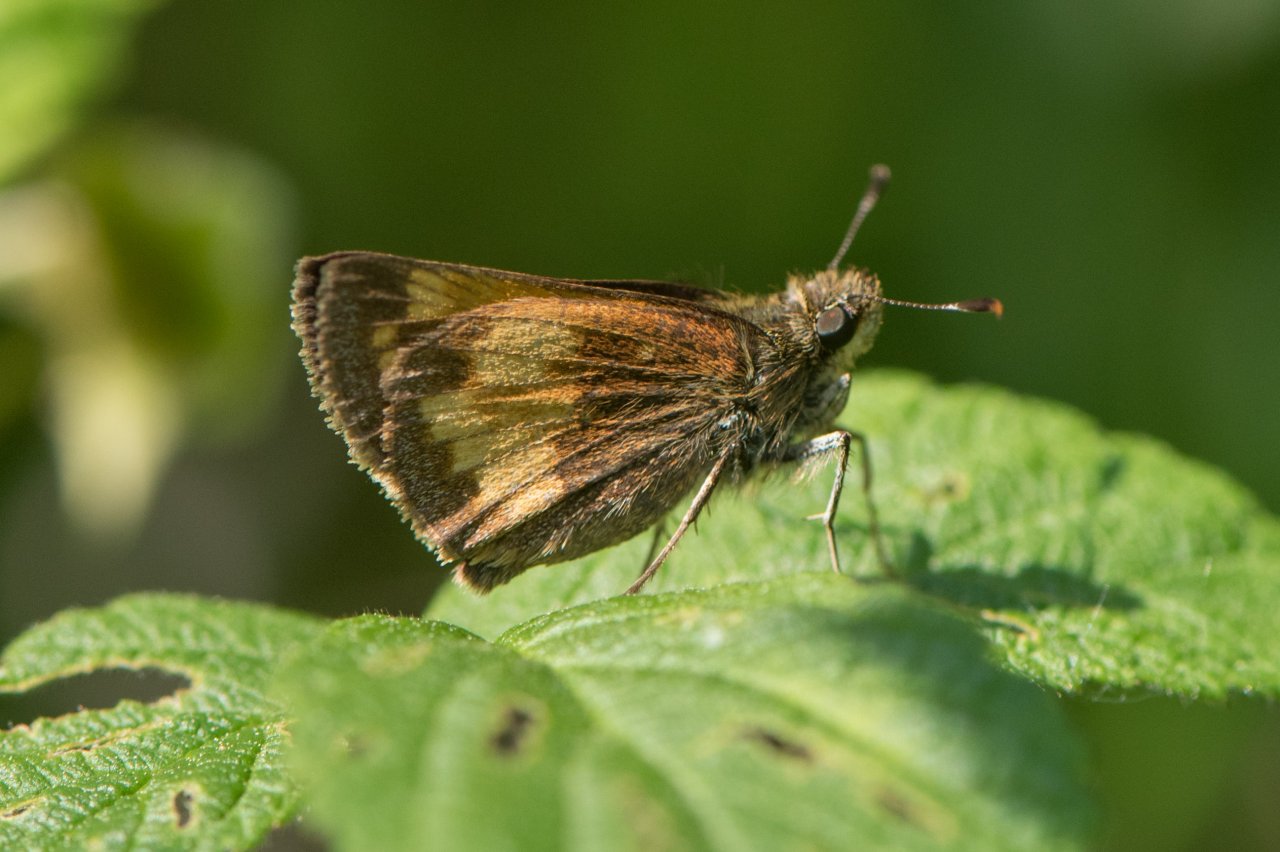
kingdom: Animalia
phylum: Arthropoda
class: Insecta
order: Lepidoptera
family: Hesperiidae
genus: Lon
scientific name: Lon hobomok
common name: Hobomok Skipper
